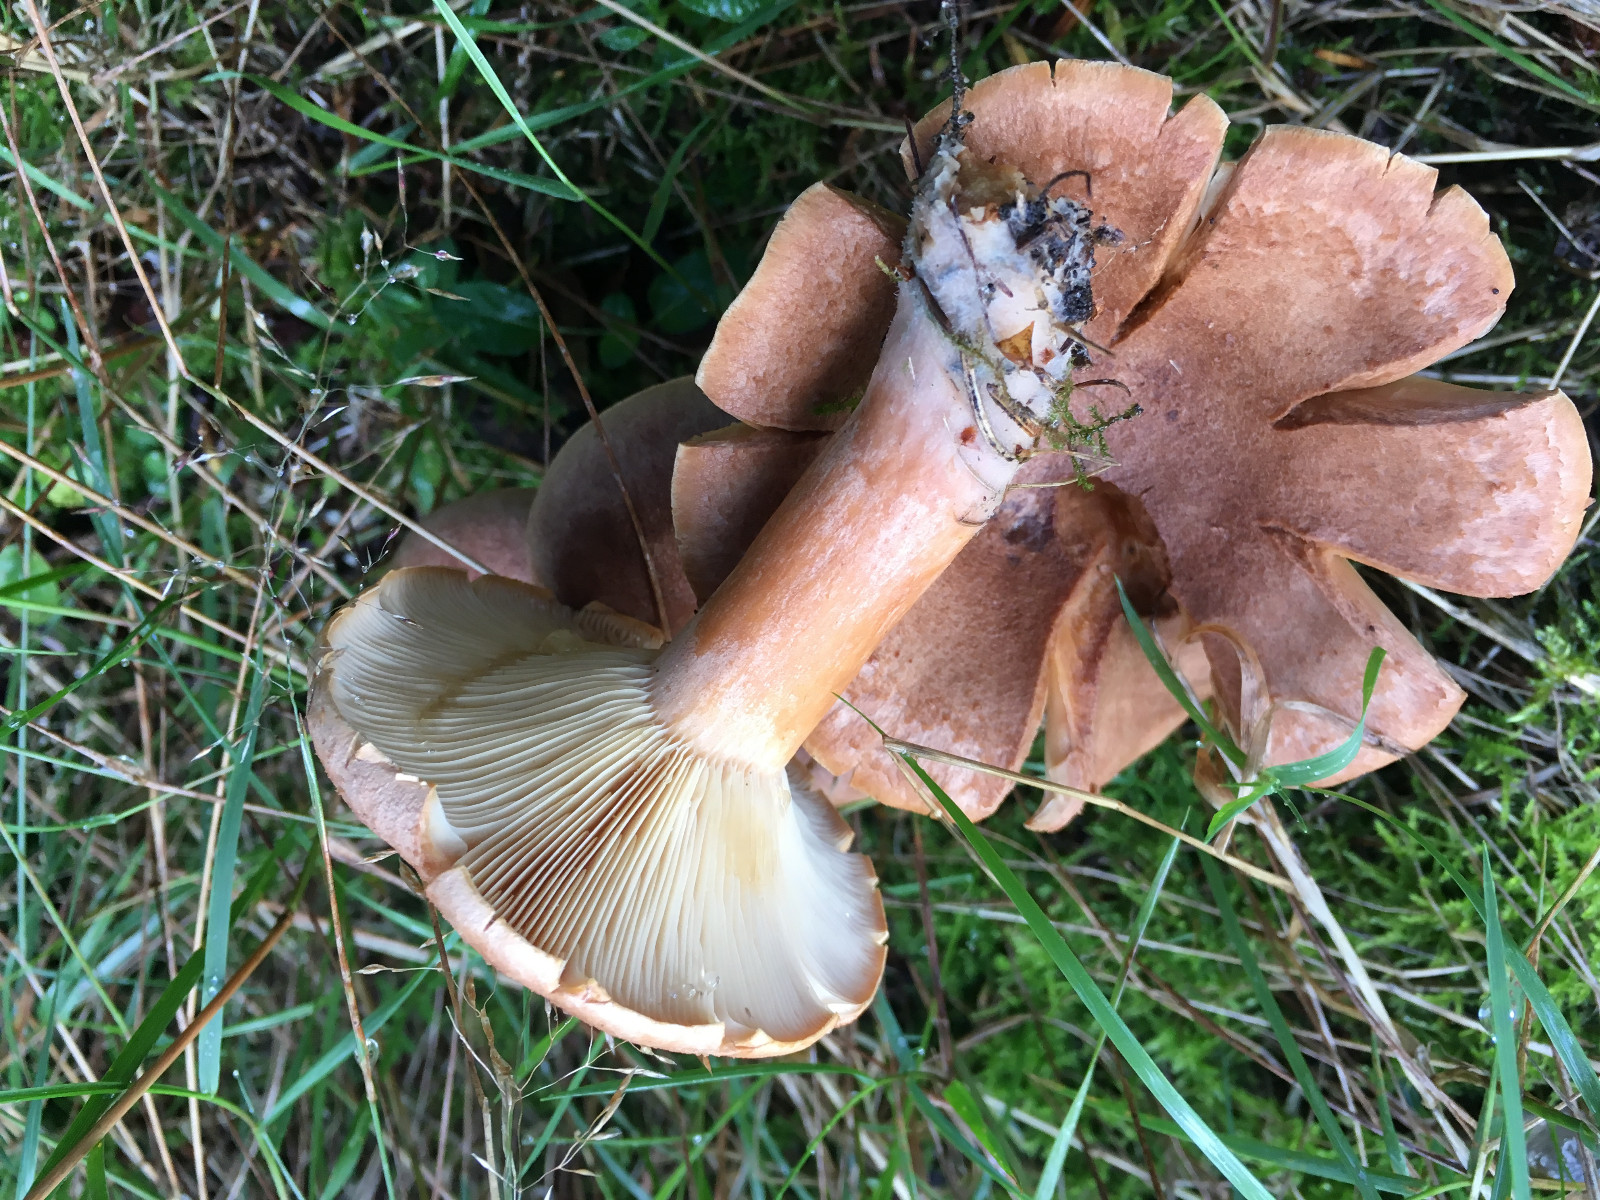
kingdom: Fungi
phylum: Basidiomycota
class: Agaricomycetes
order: Russulales
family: Russulaceae
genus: Lactarius
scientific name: Lactarius helvus
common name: mose-mælkehat
